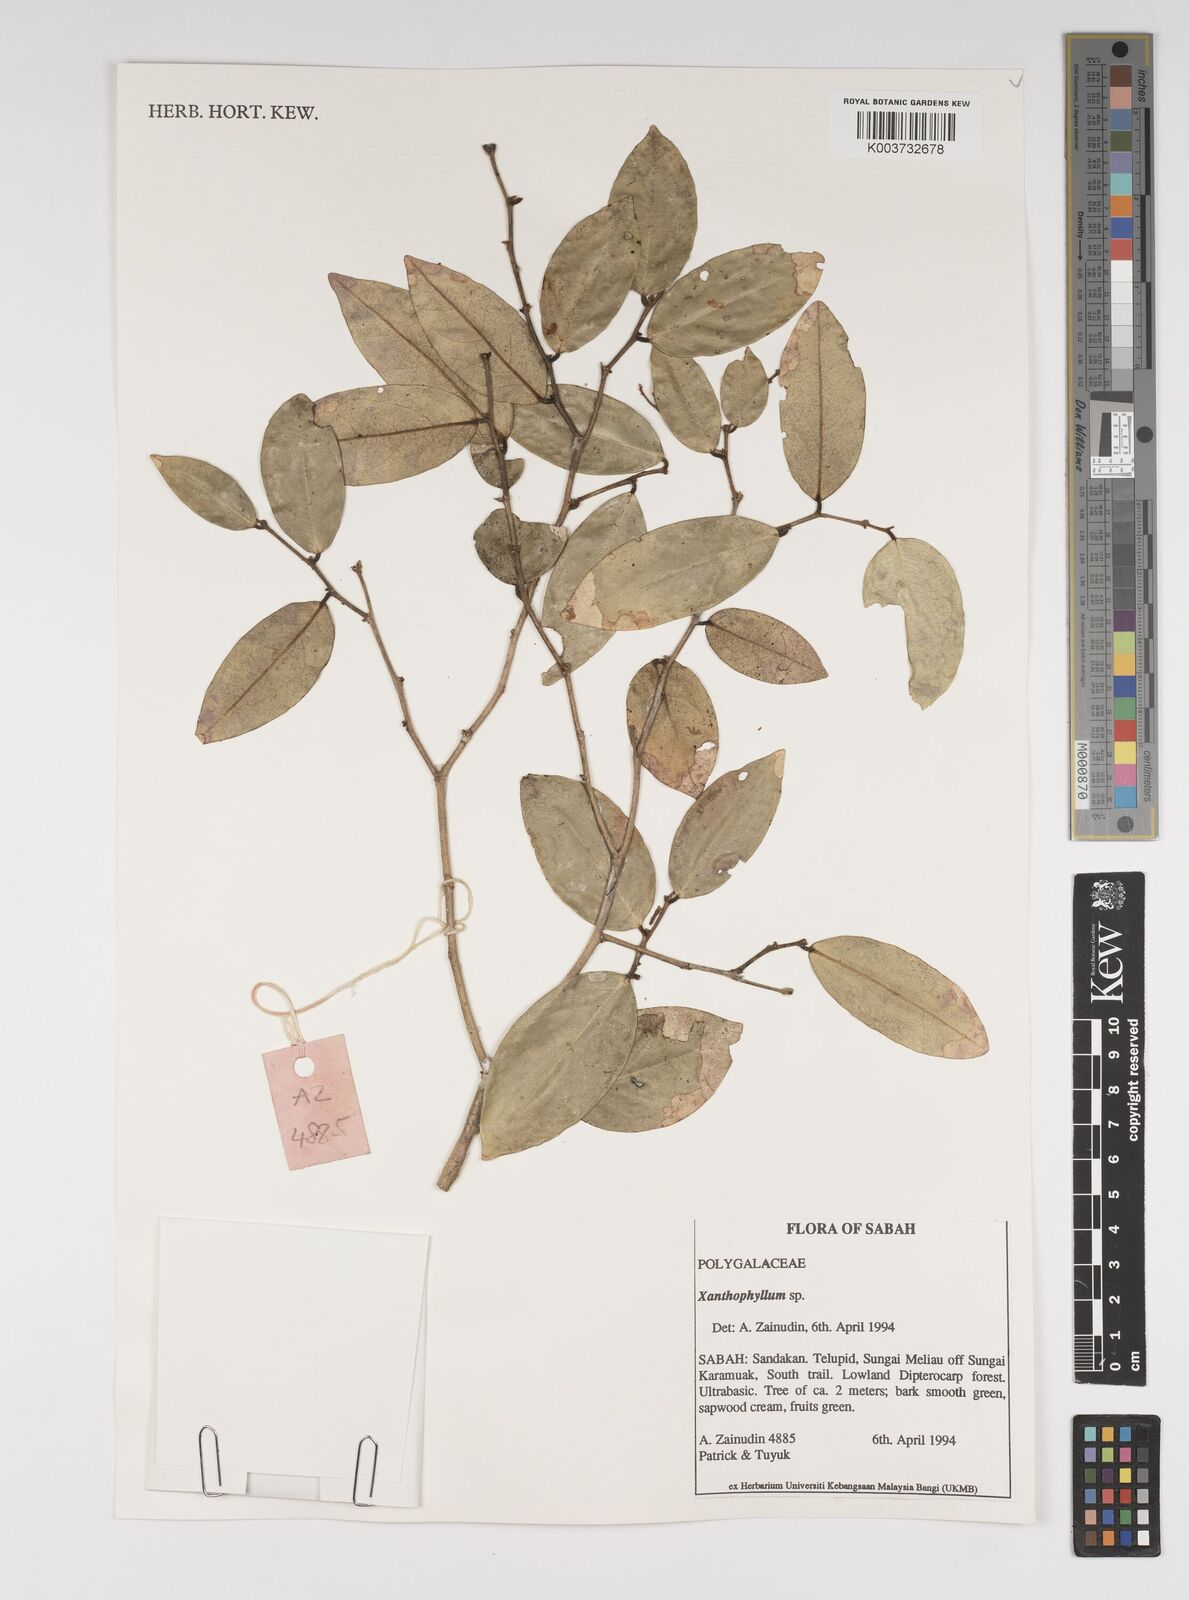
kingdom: Plantae
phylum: Tracheophyta
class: Magnoliopsida
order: Fabales
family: Polygalaceae
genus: Xanthophyllum
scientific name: Xanthophyllum
